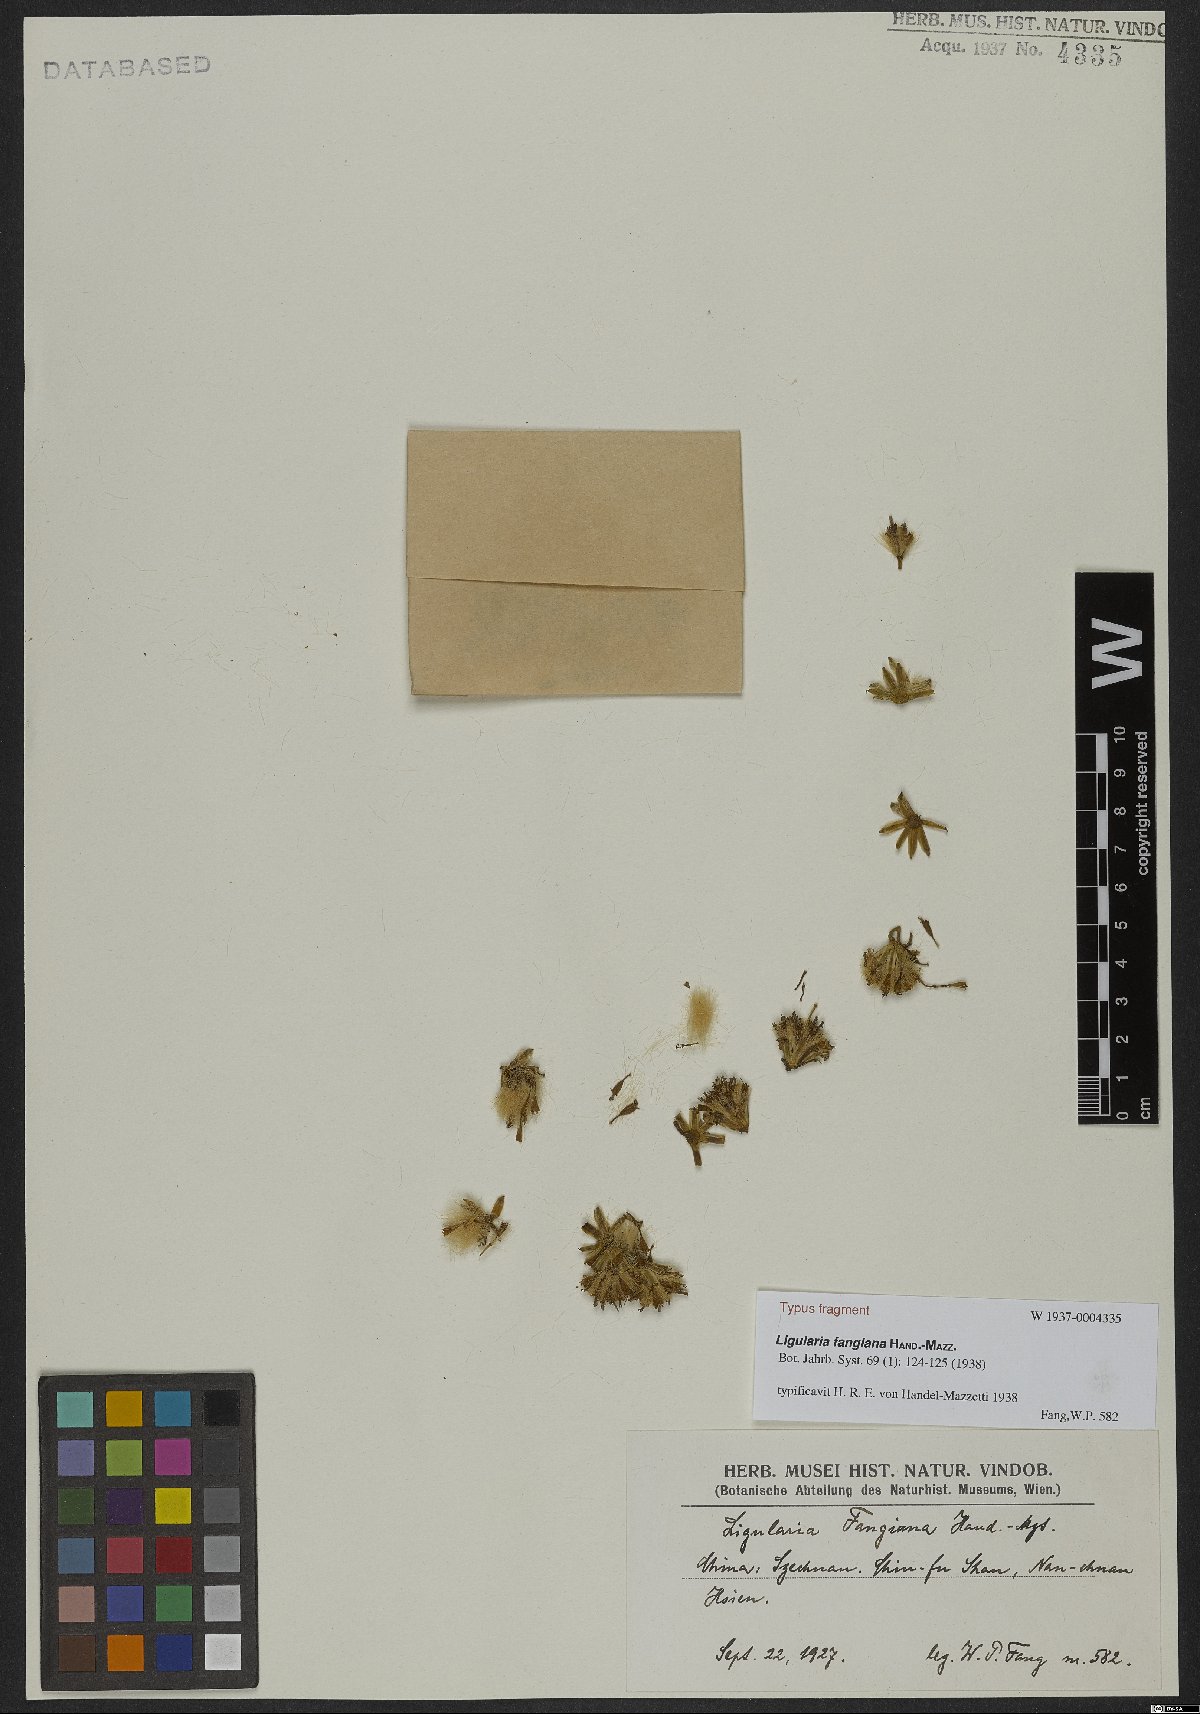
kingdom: Plantae
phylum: Tracheophyta
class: Magnoliopsida
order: Asterales
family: Asteraceae
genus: Ligularia
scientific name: Ligularia fangiana
